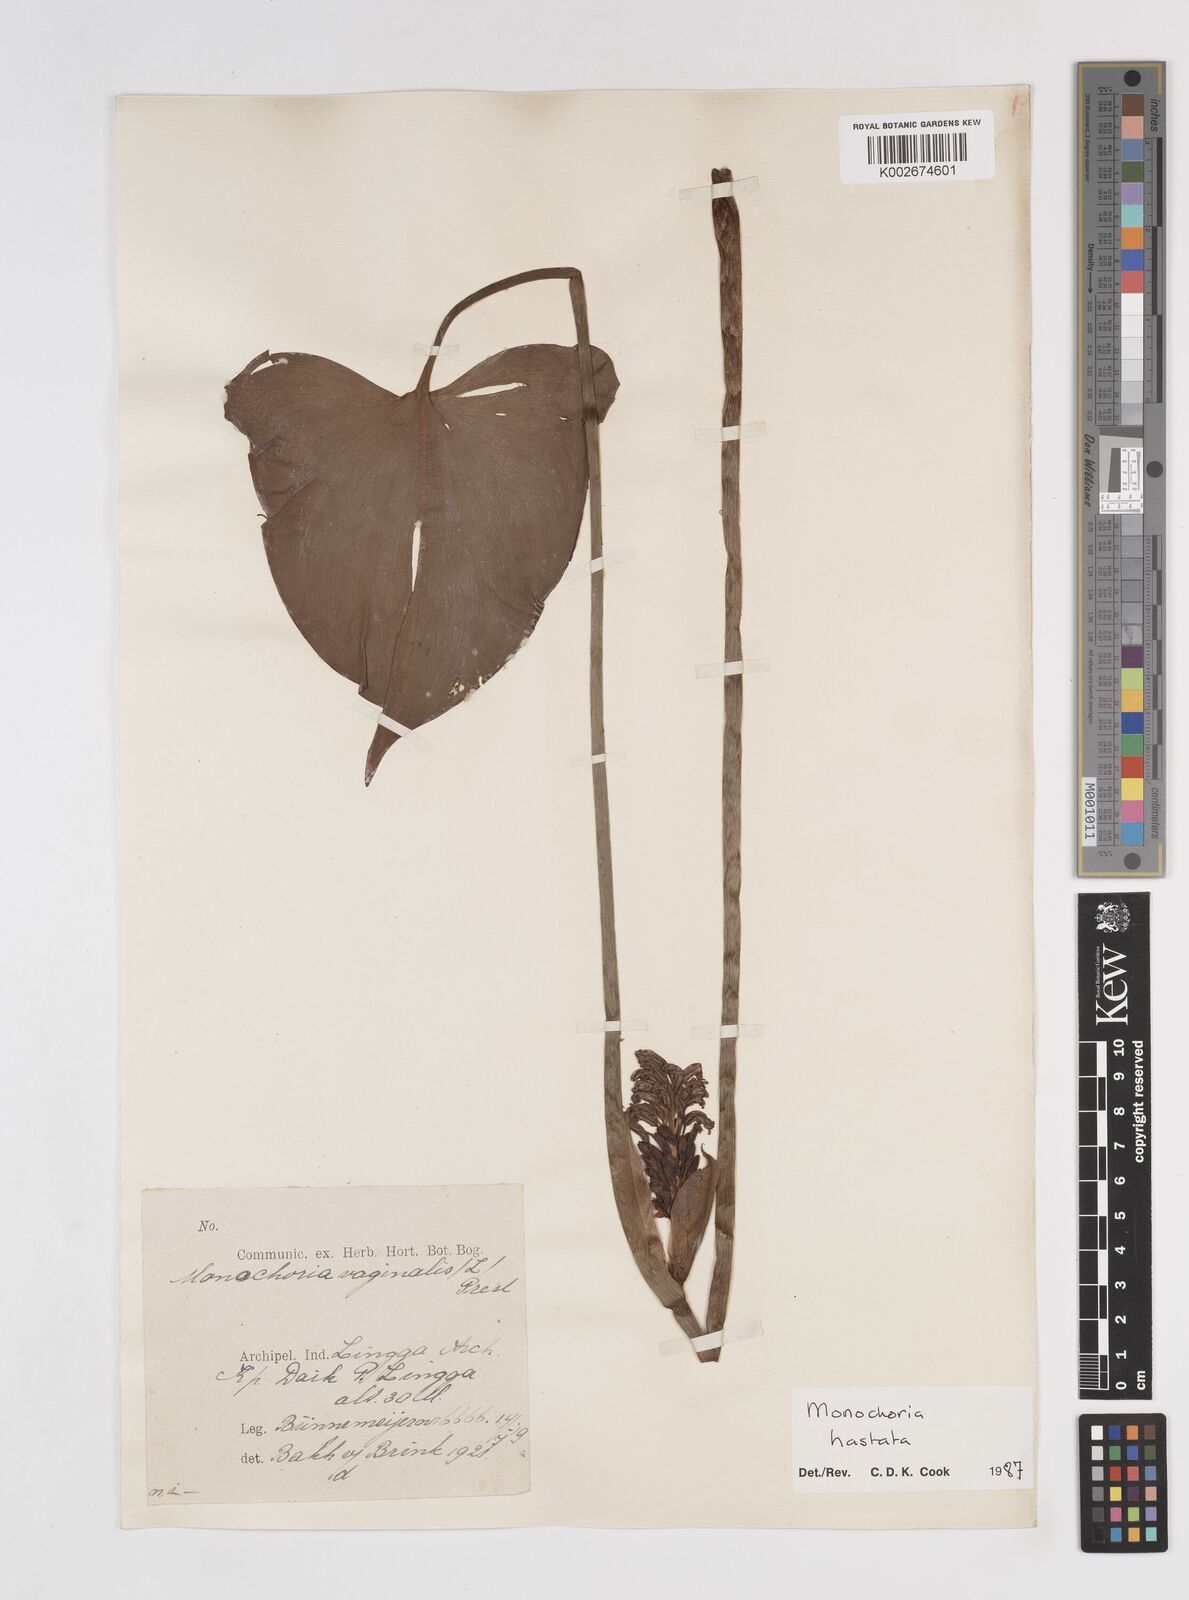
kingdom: Plantae
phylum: Tracheophyta
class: Liliopsida
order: Commelinales
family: Pontederiaceae
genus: Pontederia
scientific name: Pontederia hastata
